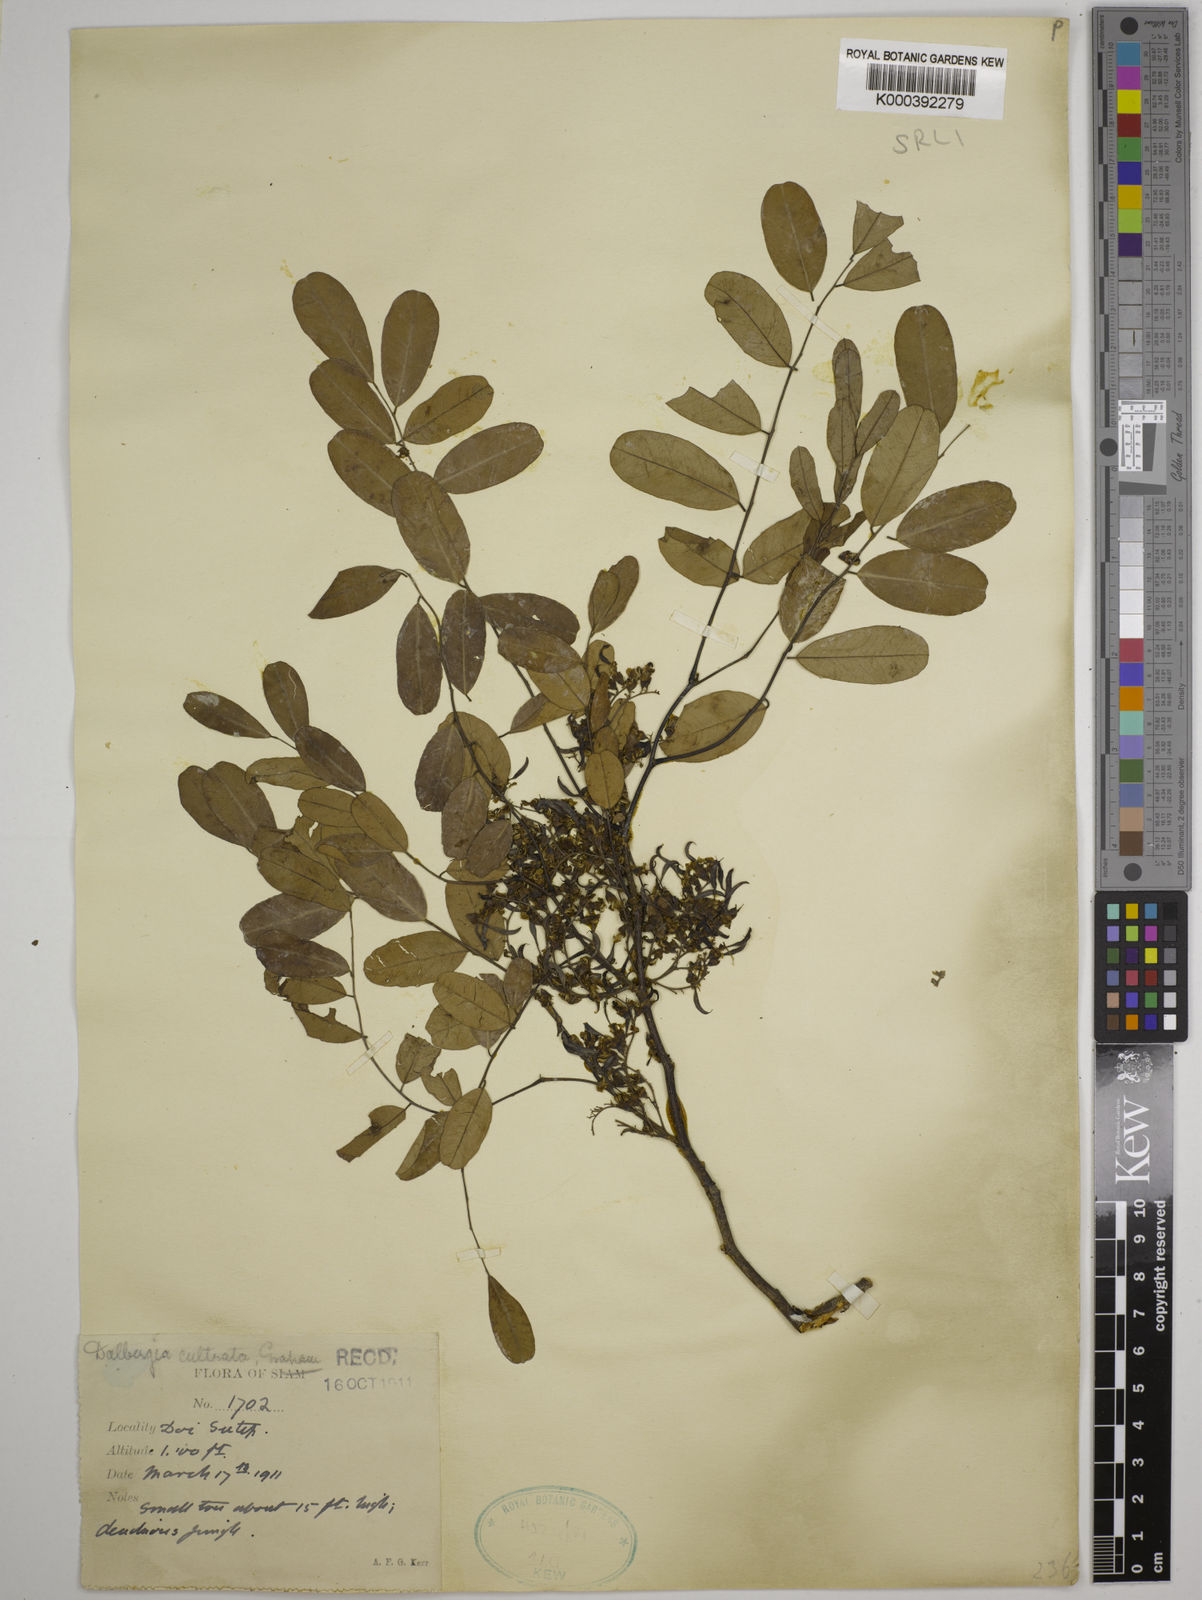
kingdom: Plantae
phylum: Tracheophyta
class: Magnoliopsida
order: Fabales
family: Fabaceae
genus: Dalbergia
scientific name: Dalbergia
